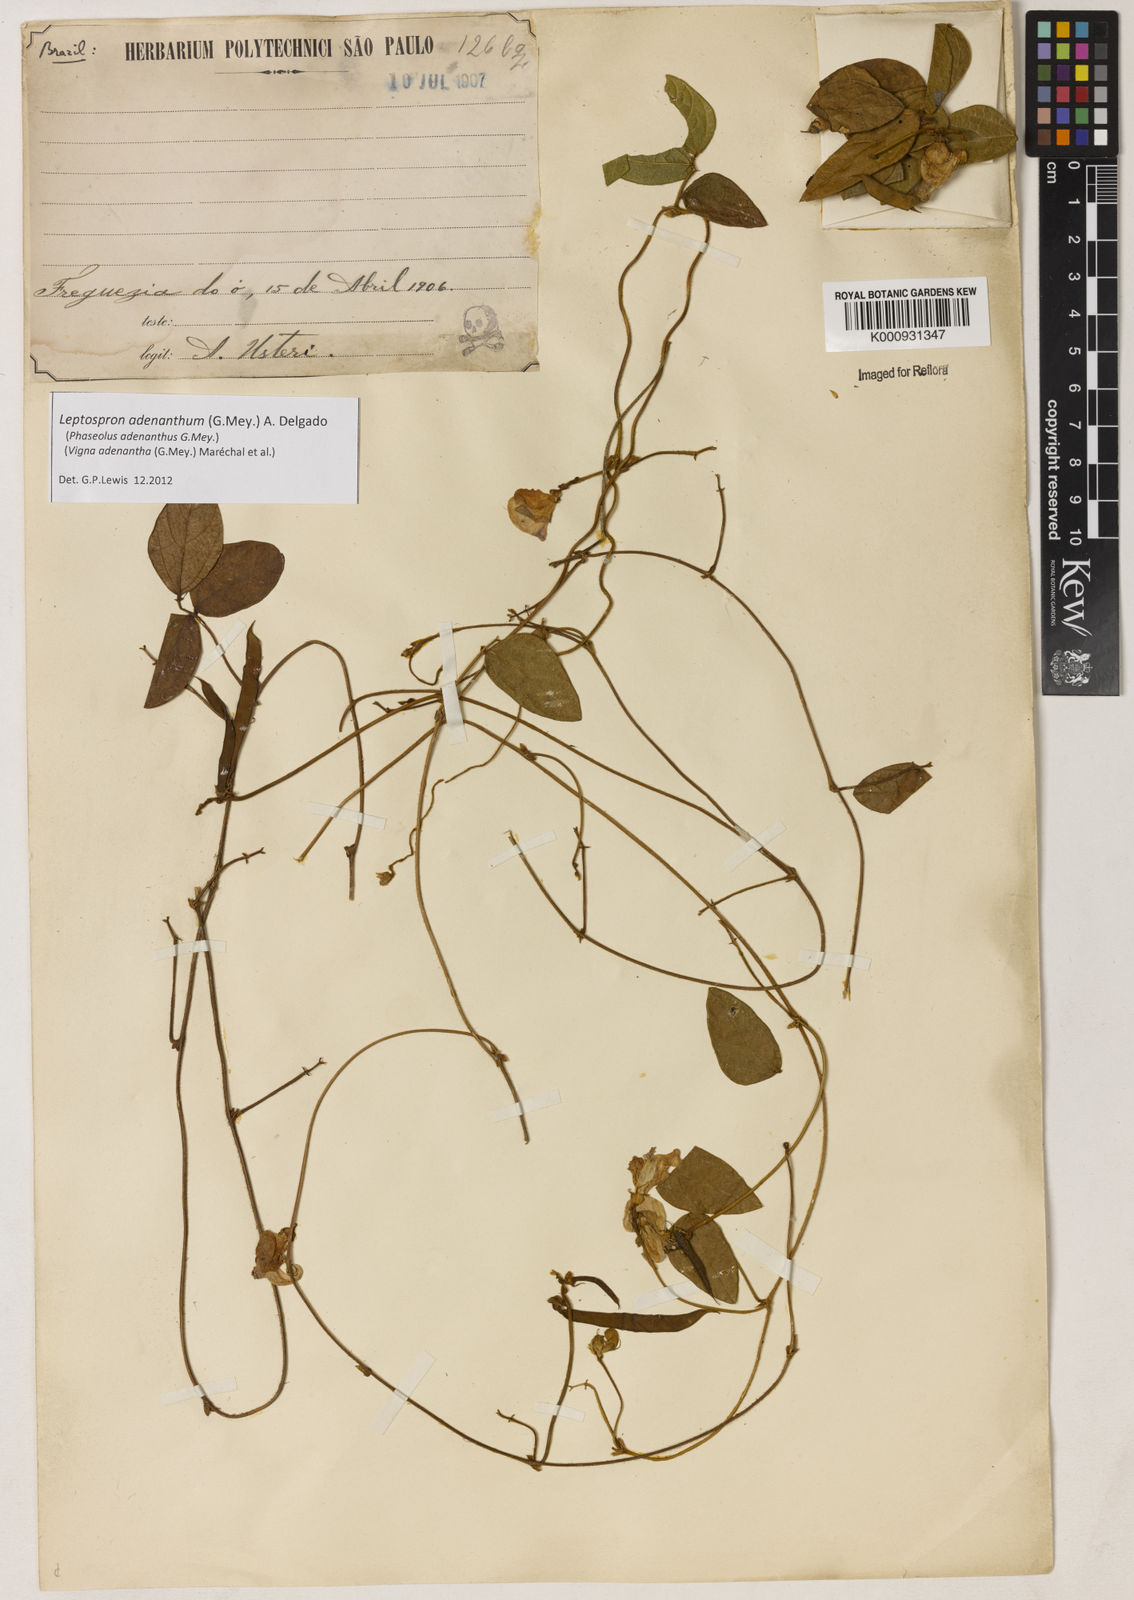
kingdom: Plantae
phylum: Tracheophyta
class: Magnoliopsida
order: Fabales
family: Fabaceae
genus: Leptospron
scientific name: Leptospron adenanthum
